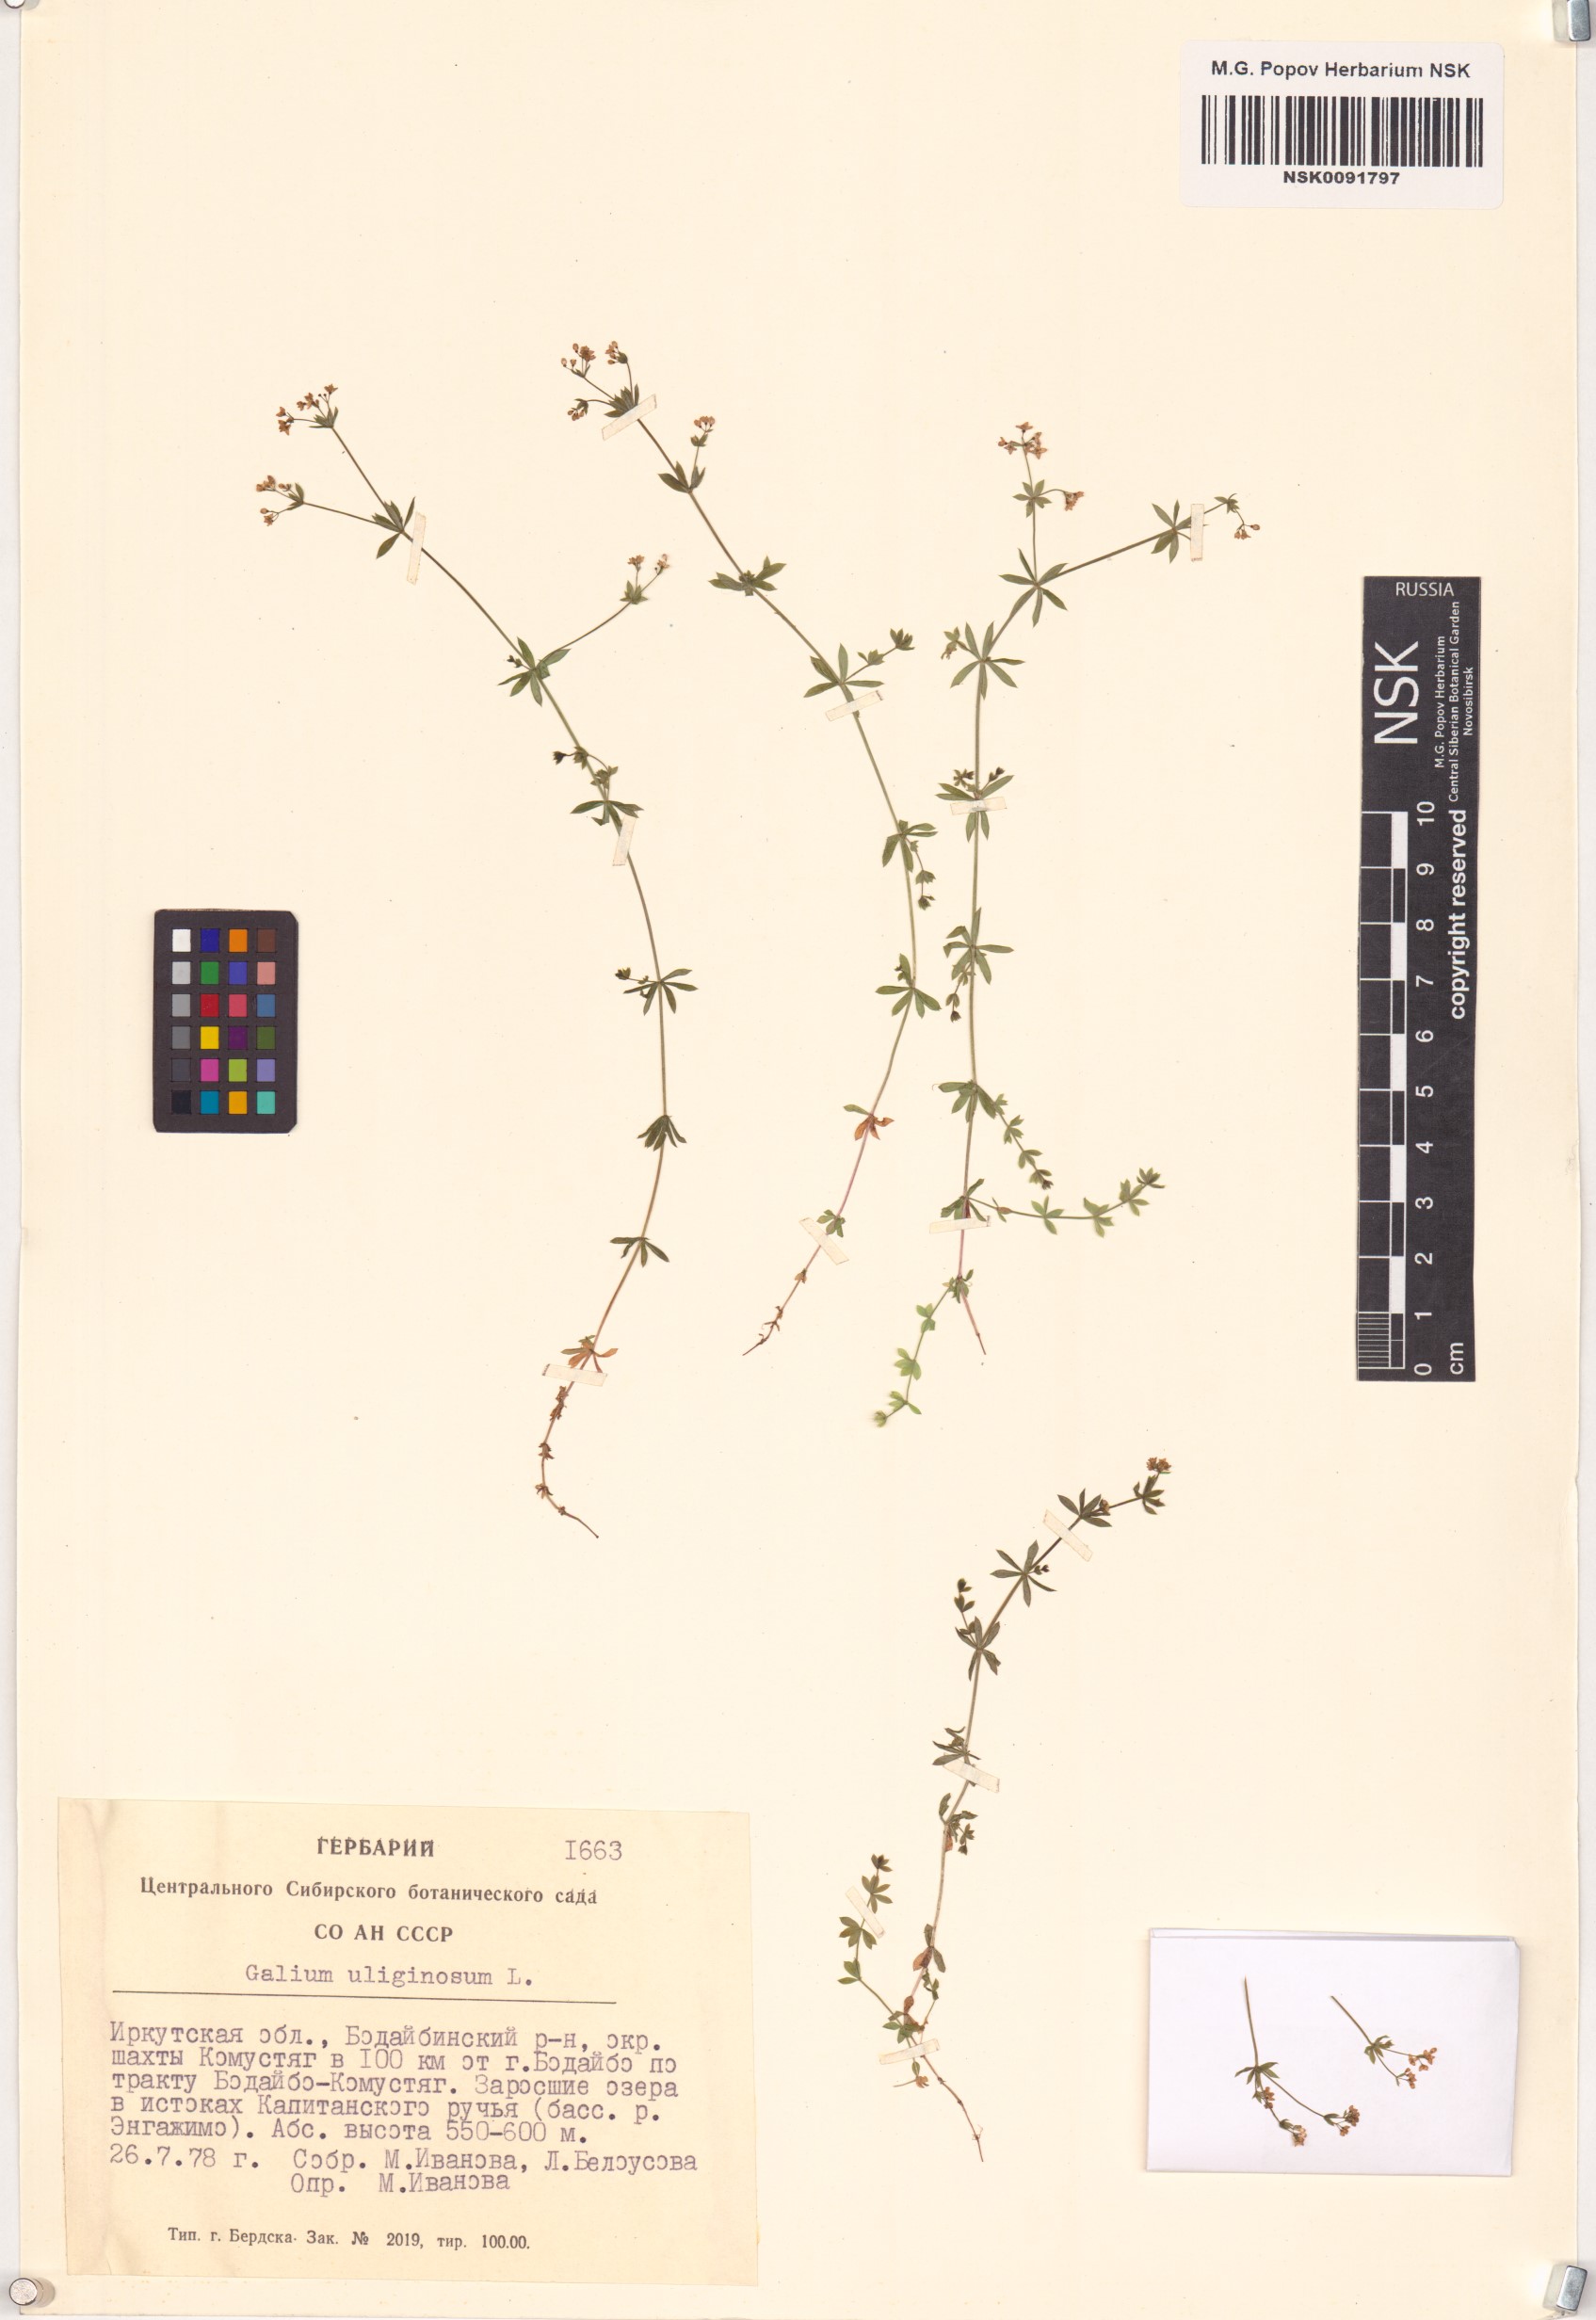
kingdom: Plantae
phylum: Tracheophyta
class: Magnoliopsida
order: Gentianales
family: Rubiaceae
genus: Galium
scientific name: Galium uliginosum
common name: Fen bedstraw
